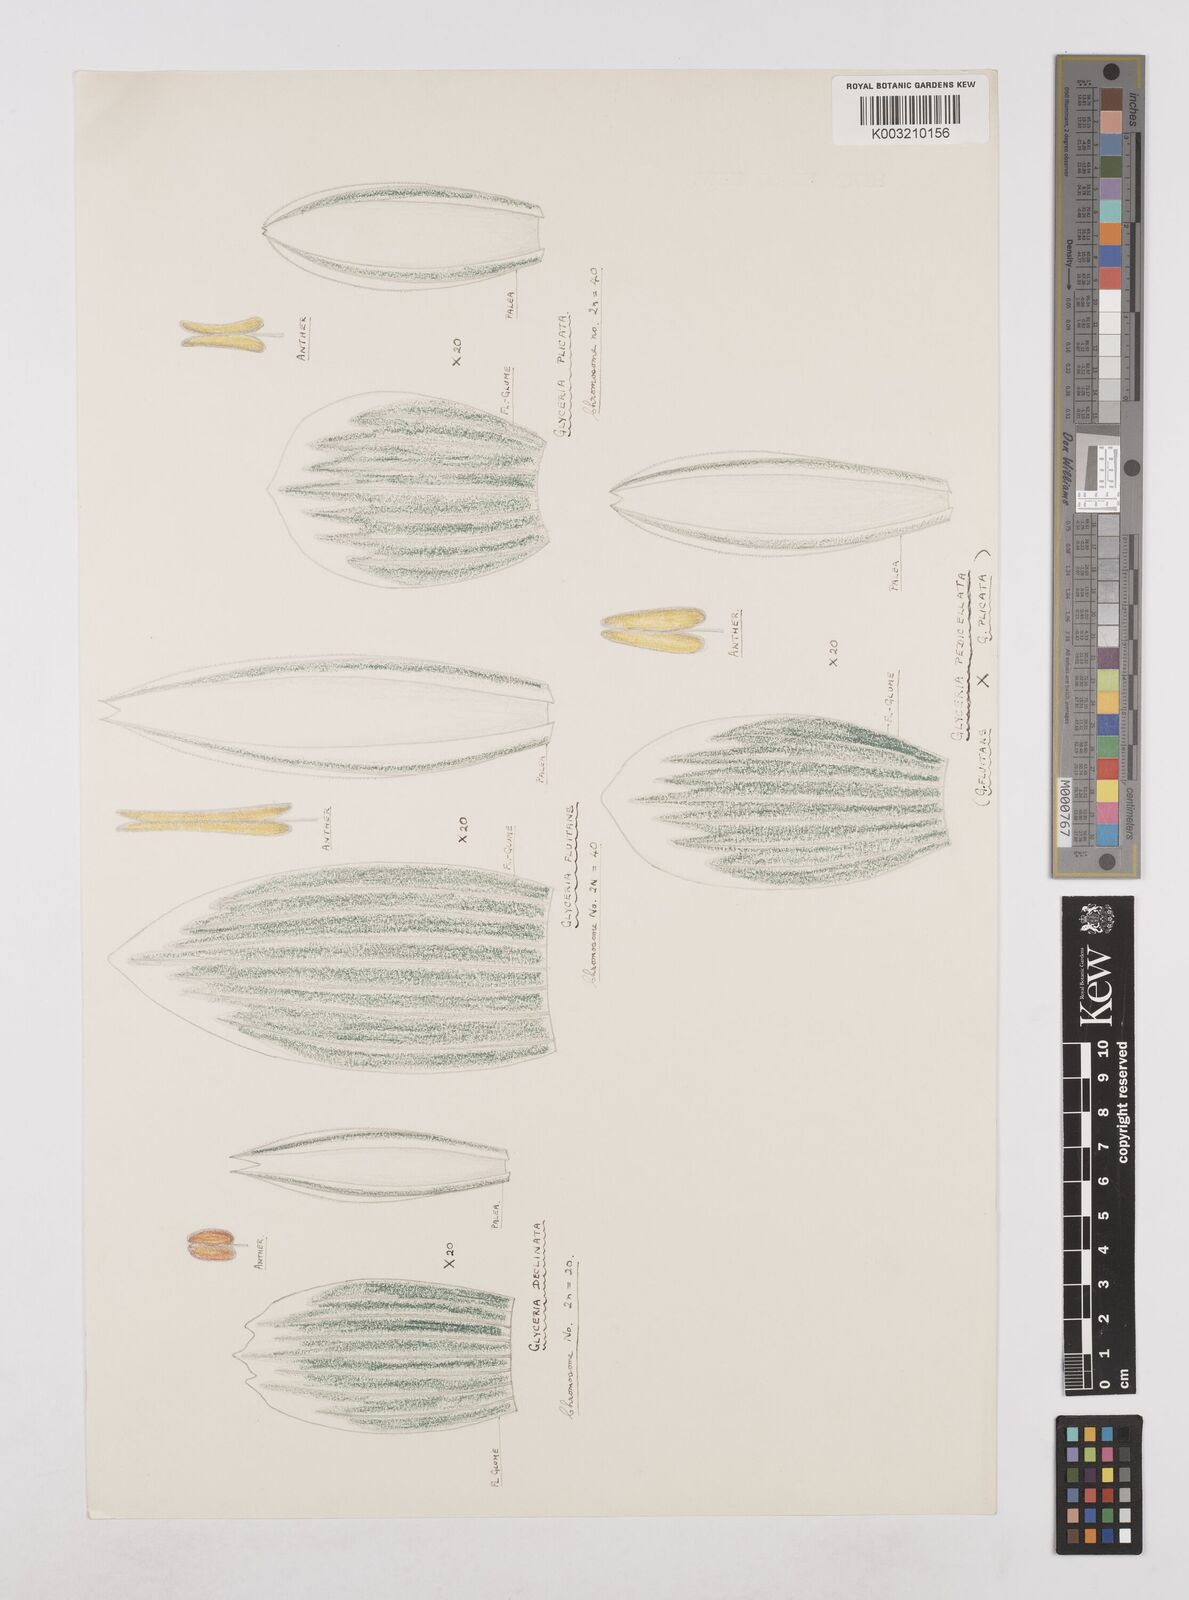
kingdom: Plantae
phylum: Tracheophyta
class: Liliopsida
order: Poales
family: Poaceae
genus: Glyceria
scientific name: Glyceria maxima
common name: Reed mannagrass
